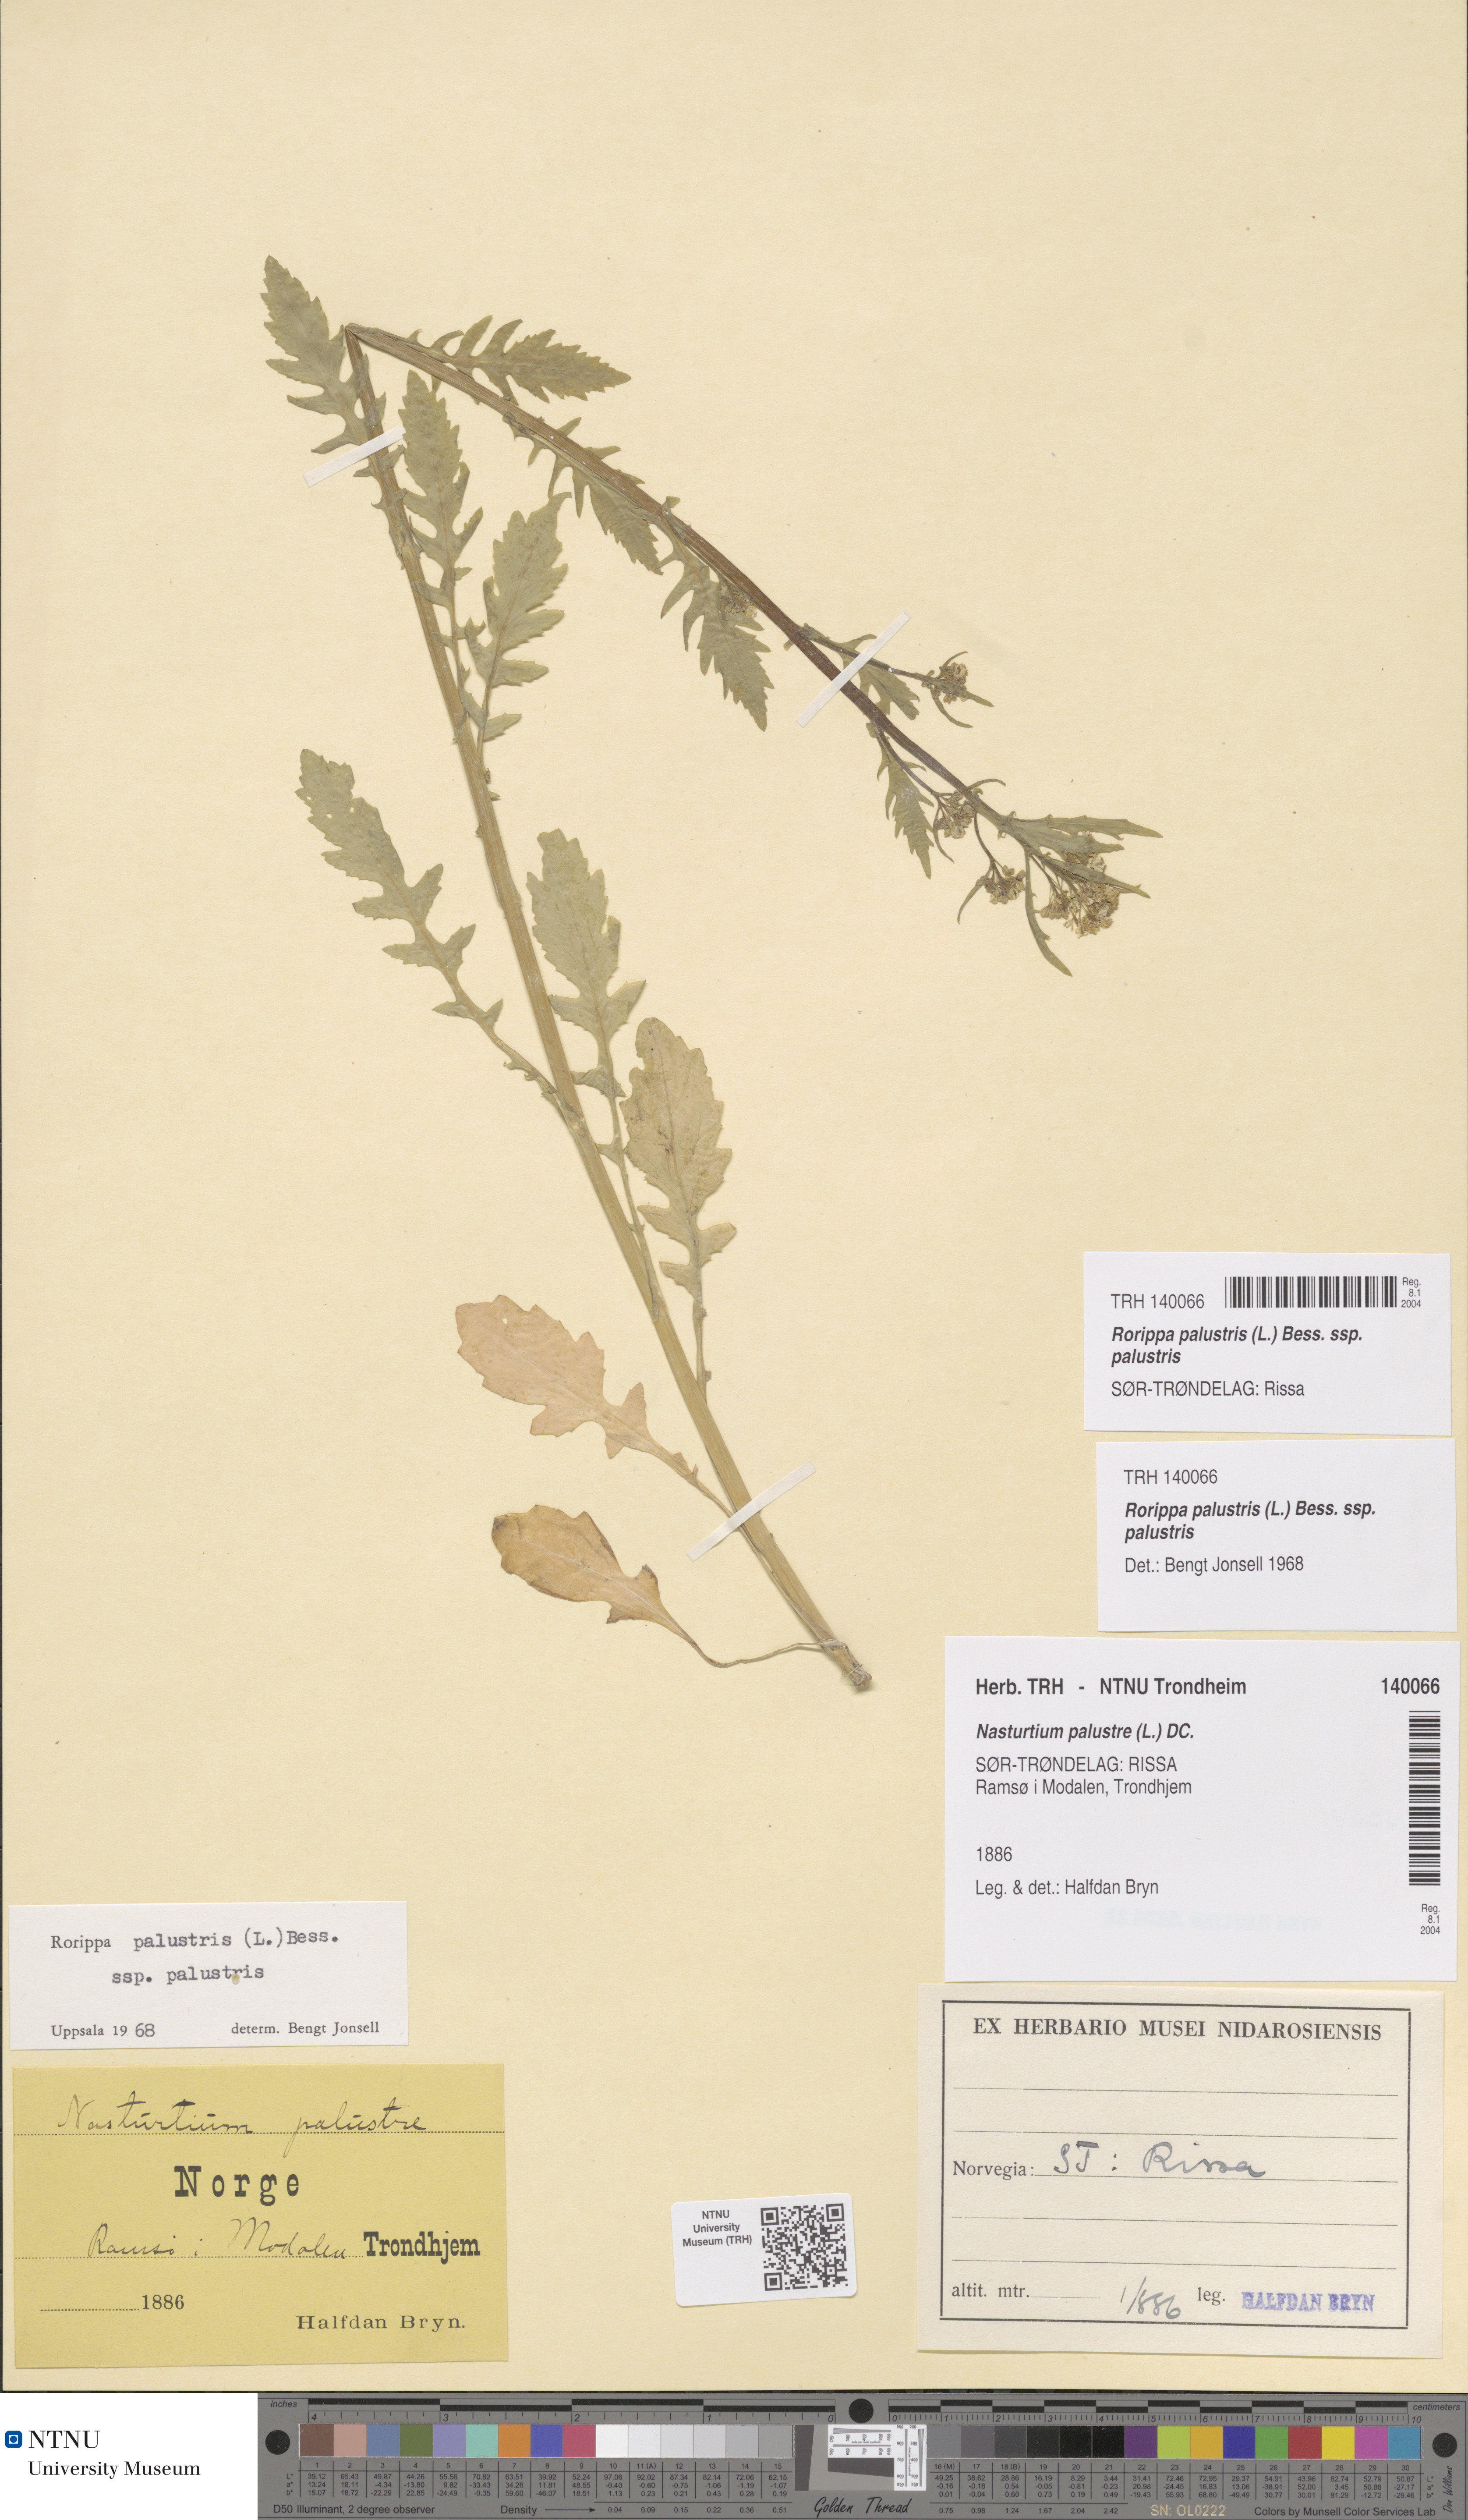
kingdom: Plantae
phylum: Tracheophyta
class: Magnoliopsida
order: Brassicales
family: Brassicaceae
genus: Rorippa
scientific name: Rorippa palustris
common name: Marsh yellow-cress
